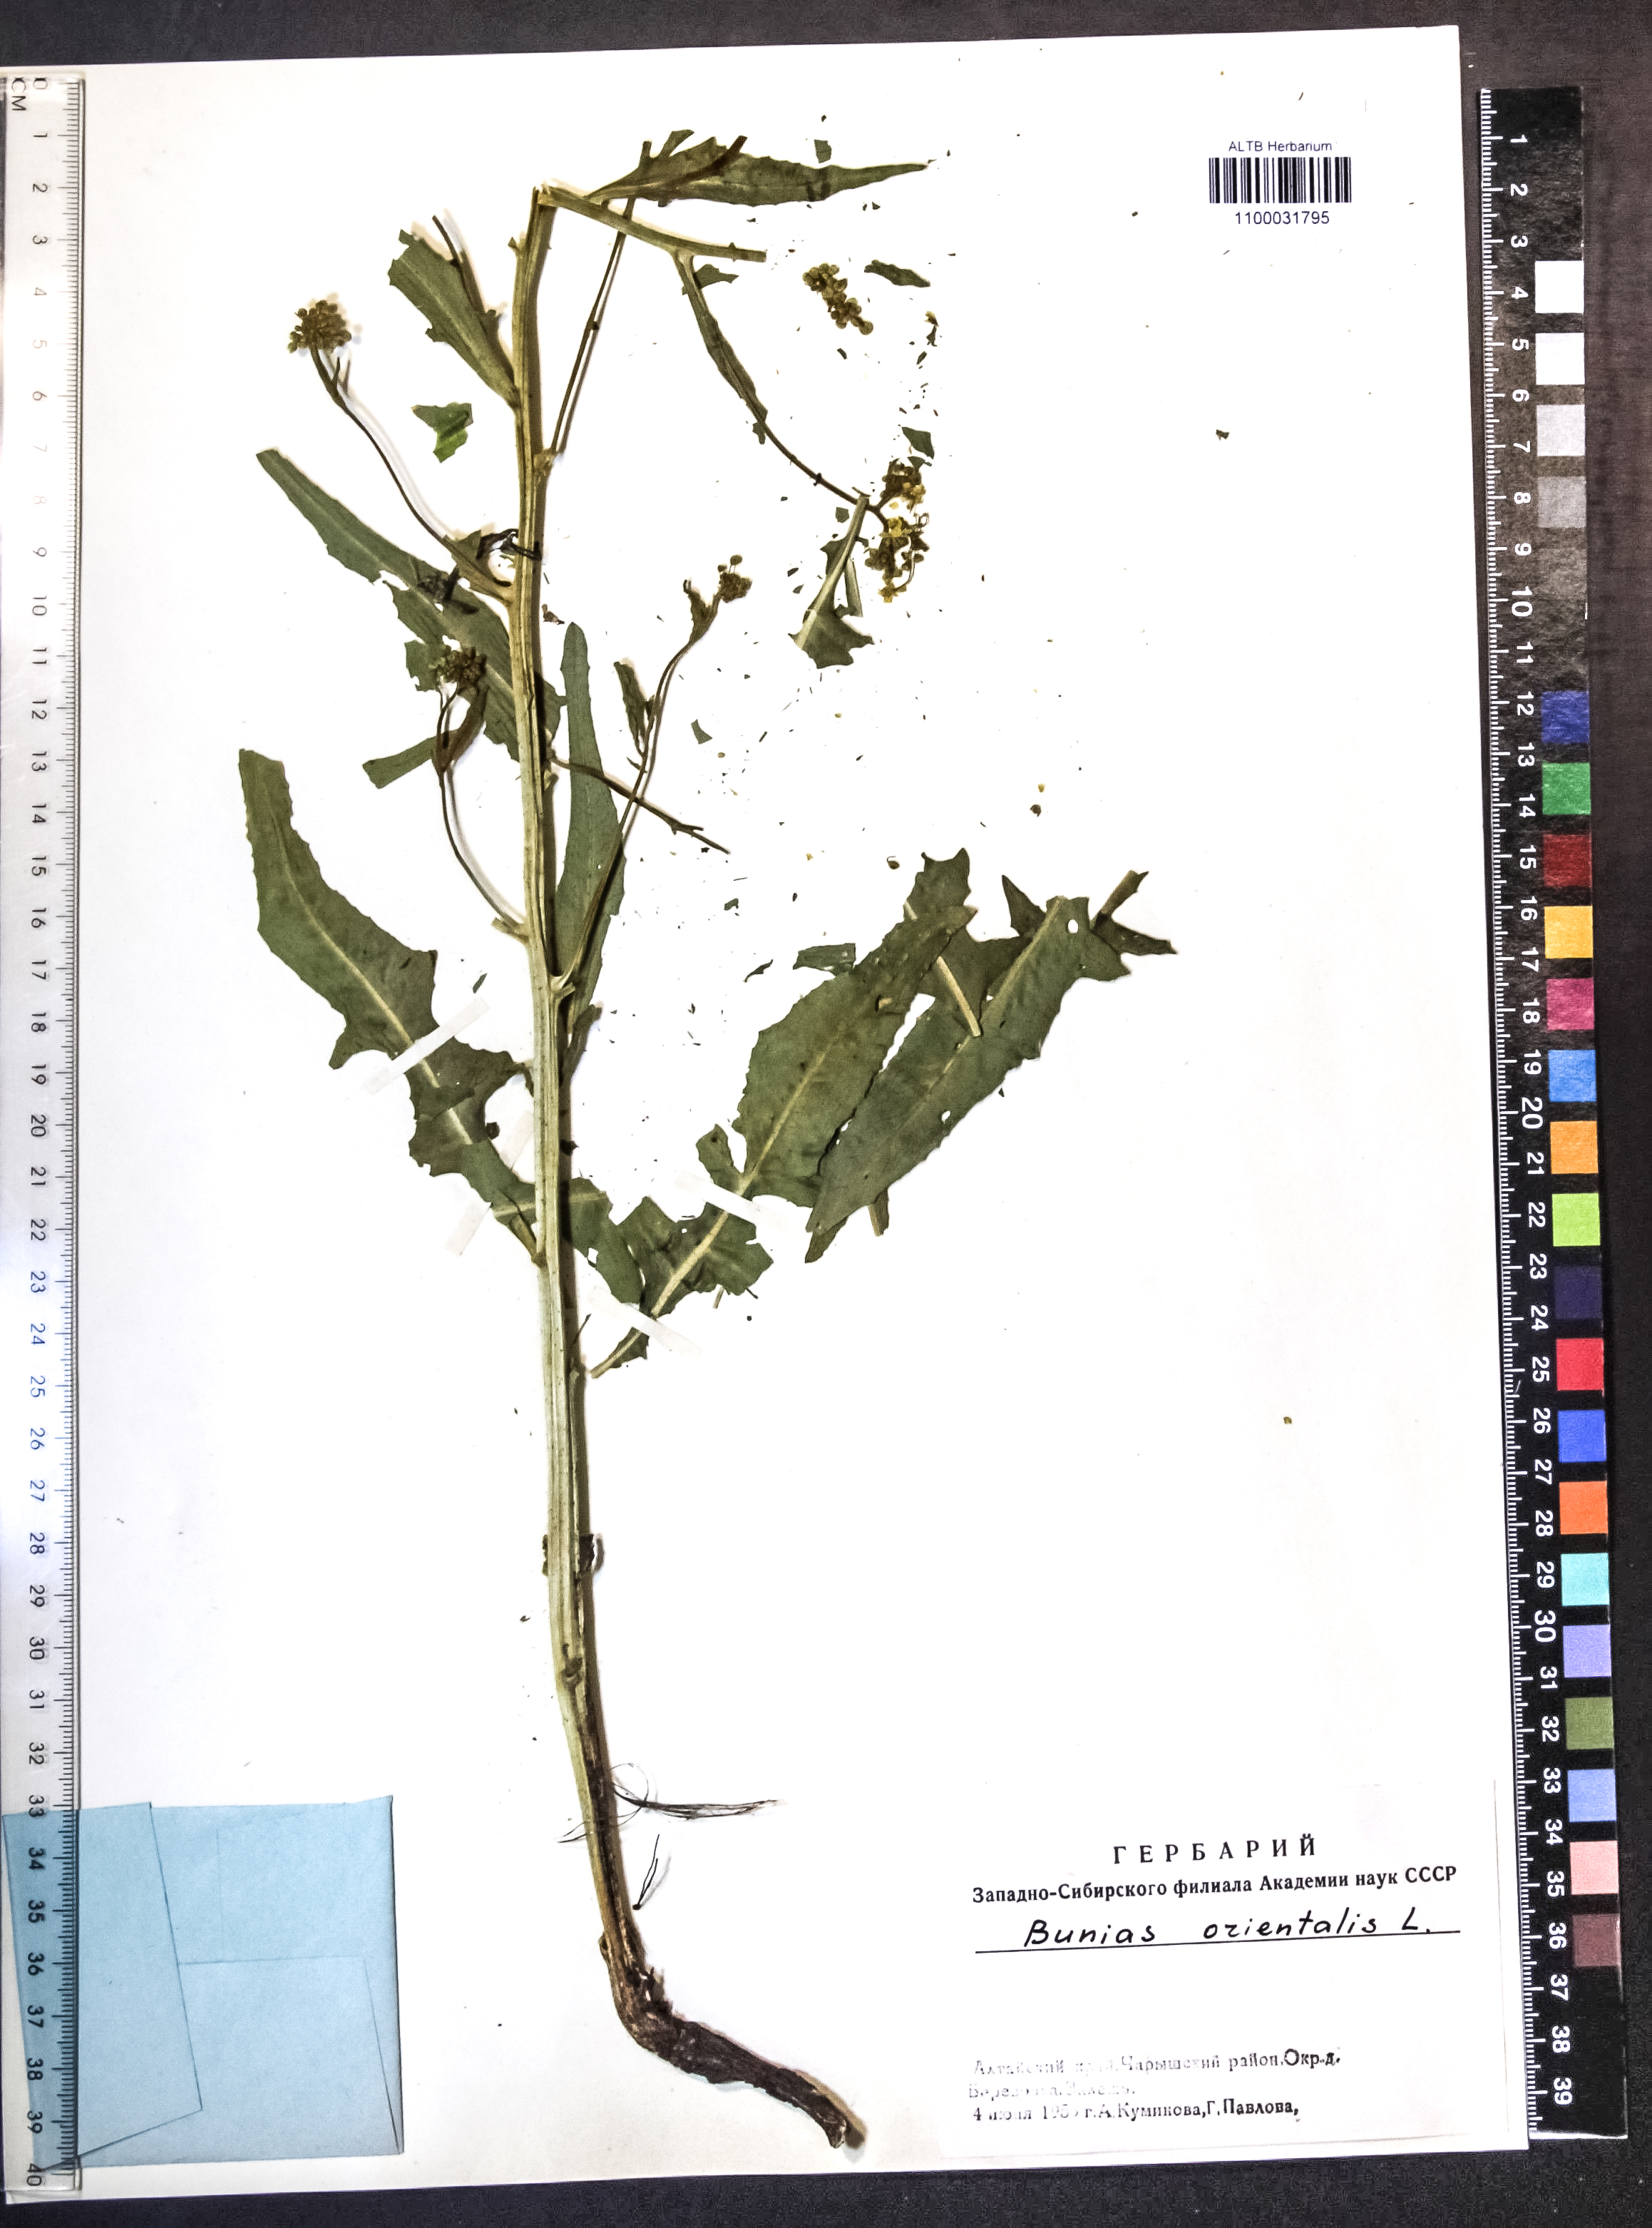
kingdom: Plantae
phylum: Tracheophyta
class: Magnoliopsida
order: Brassicales
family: Brassicaceae
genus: Bunias
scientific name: Bunias orientalis
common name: Warty-cabbage
